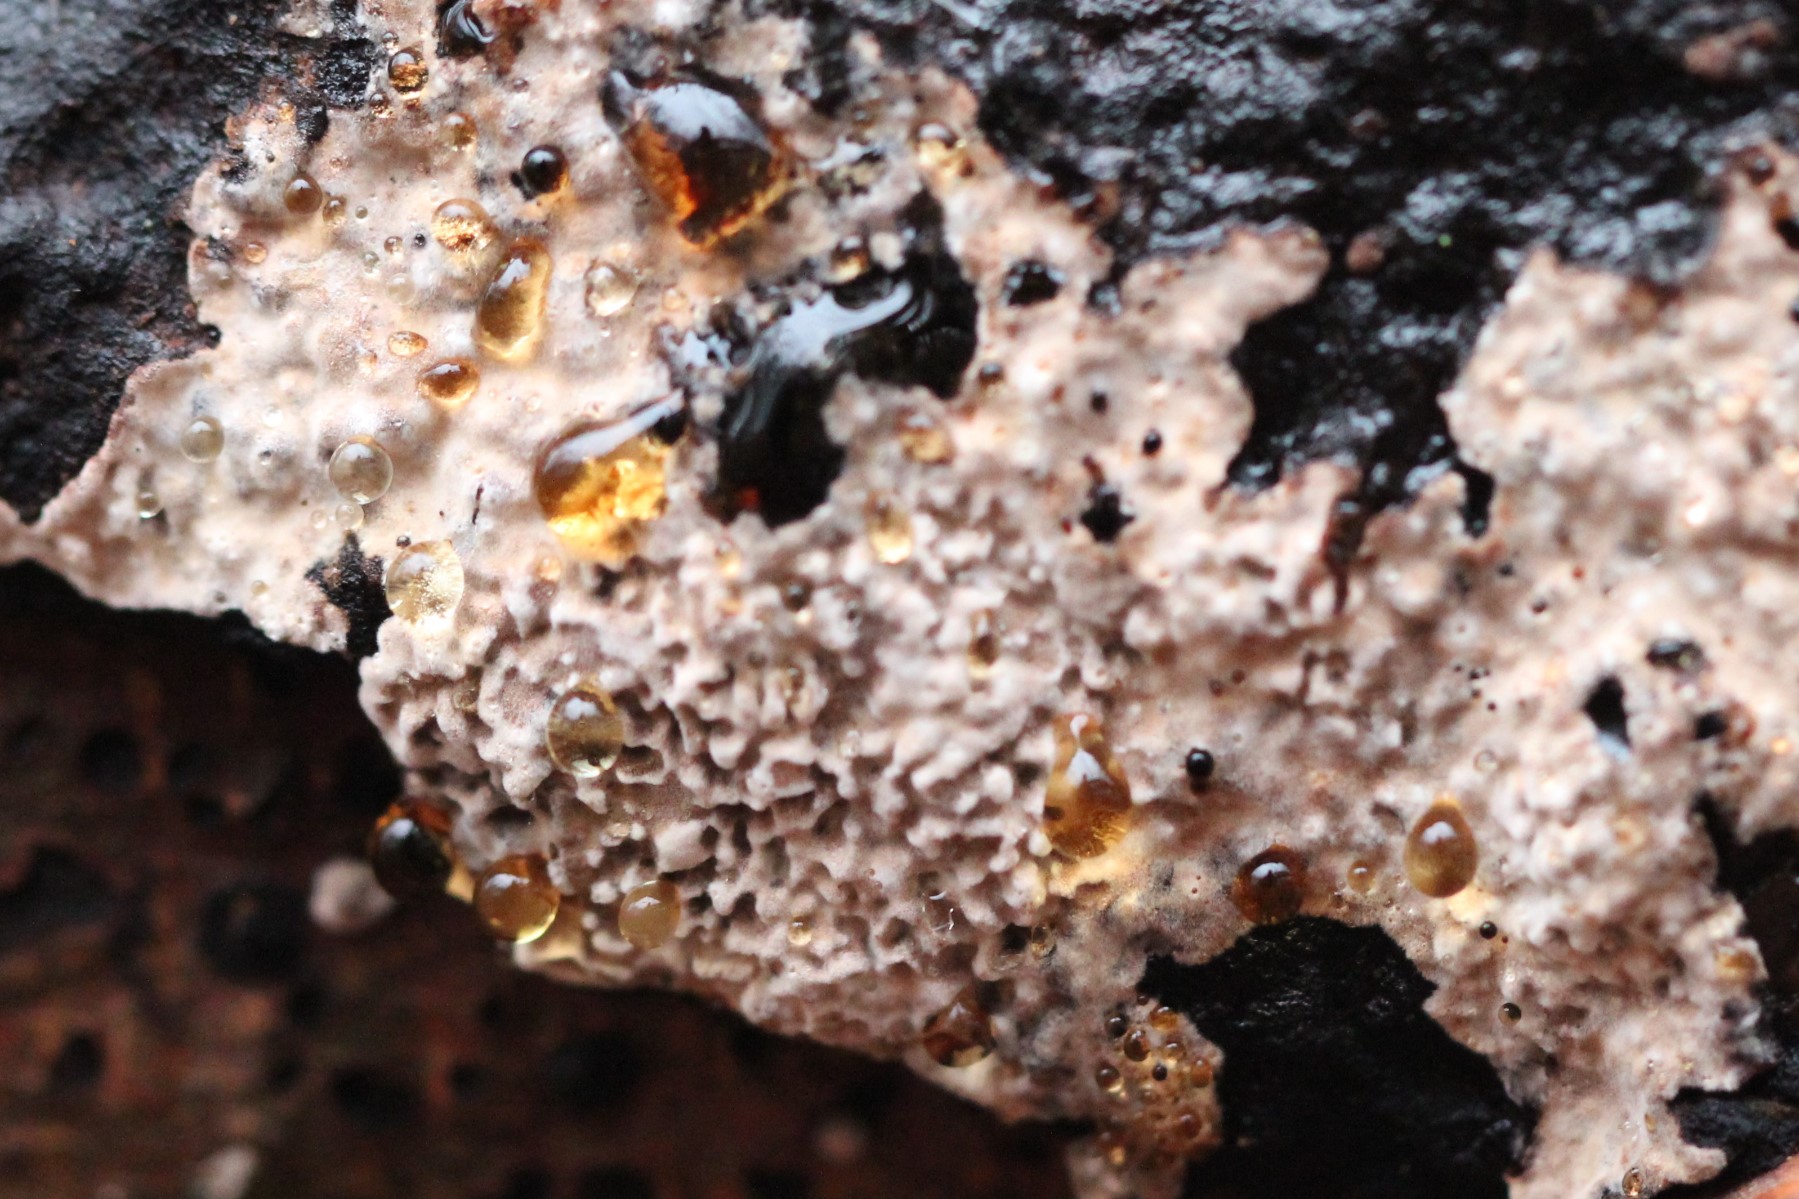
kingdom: Fungi
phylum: Basidiomycota
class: Agaricomycetes
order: Corticiales
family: Corticiaceae
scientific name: Corticiaceae
